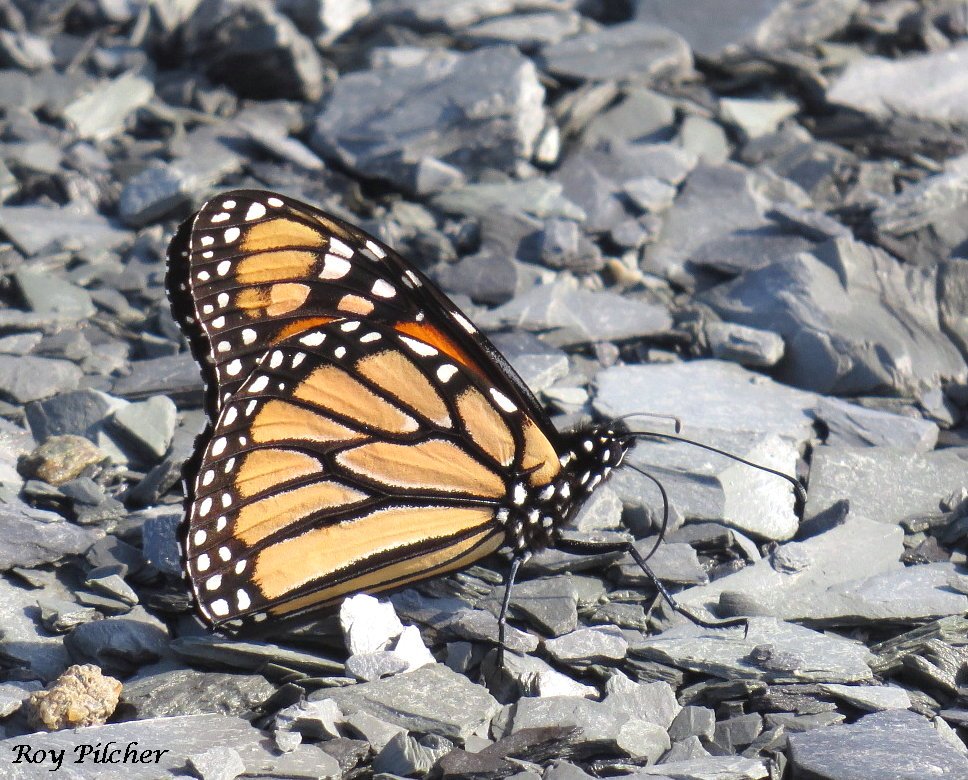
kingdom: Animalia
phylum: Arthropoda
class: Insecta
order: Lepidoptera
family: Nymphalidae
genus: Danaus
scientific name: Danaus plexippus
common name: Monarch
